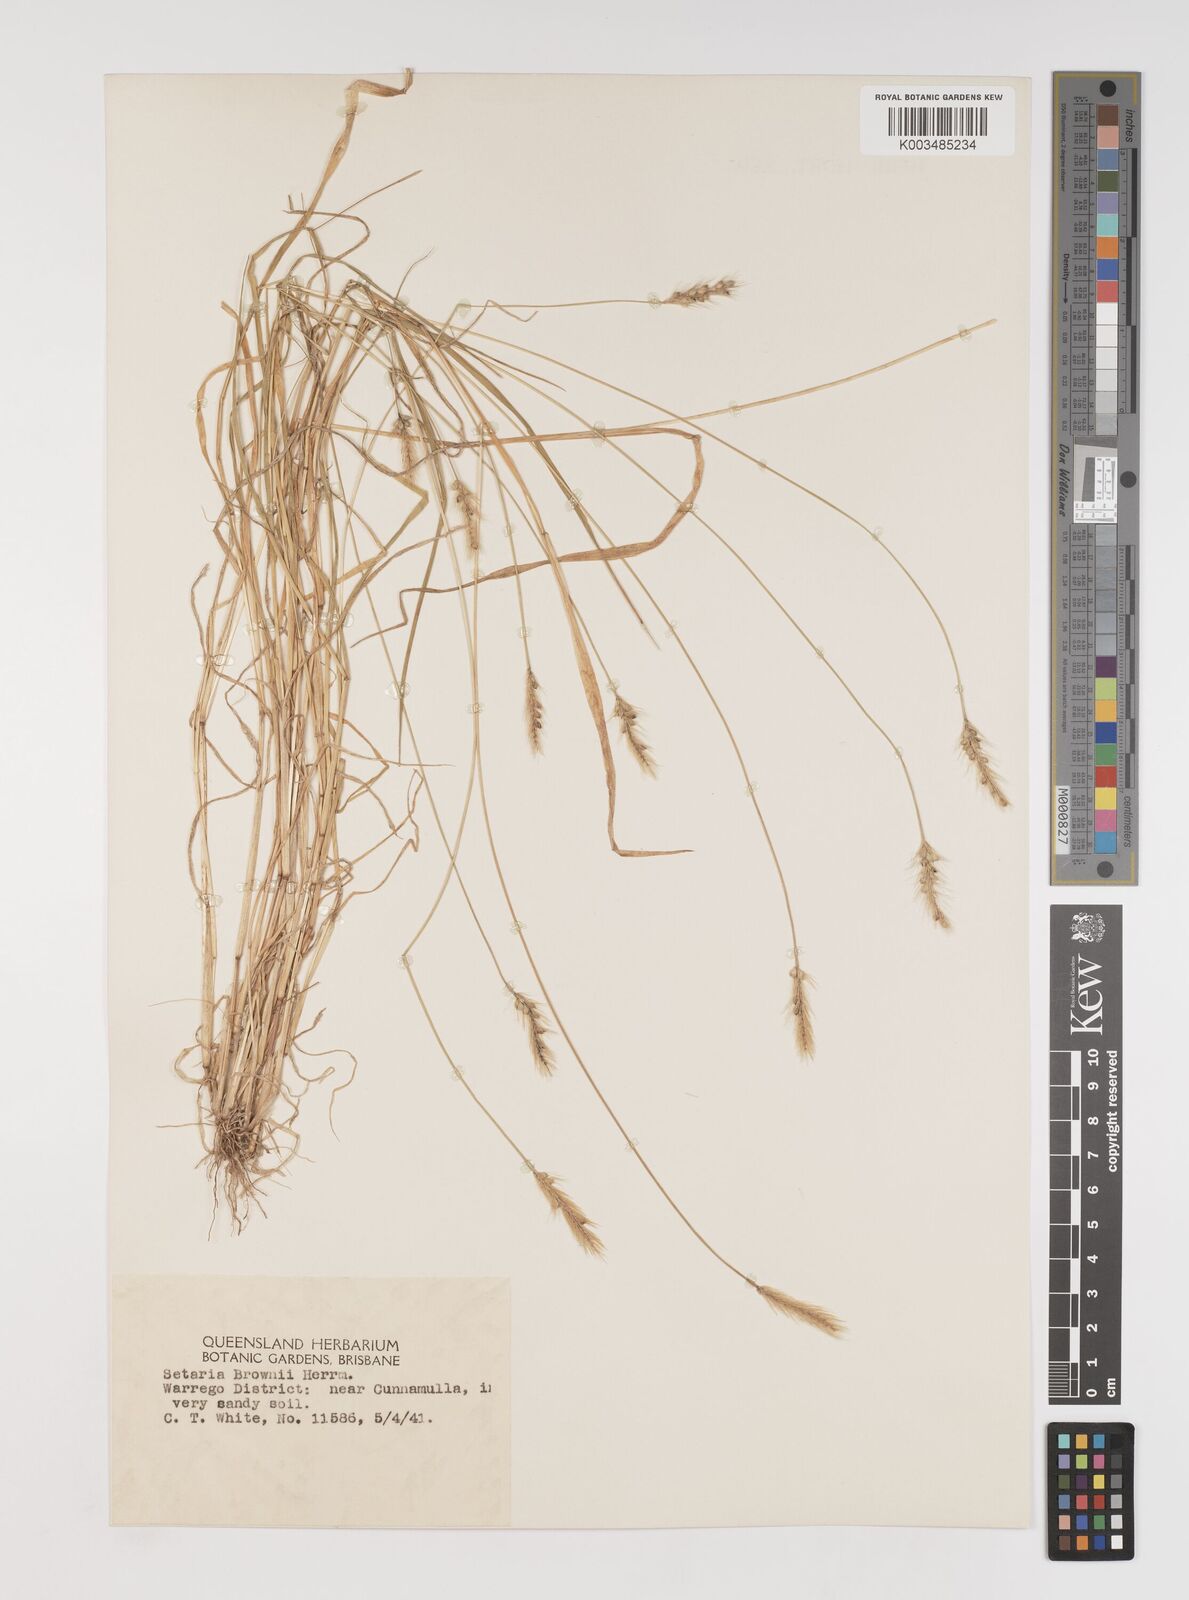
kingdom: Plantae
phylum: Tracheophyta
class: Liliopsida
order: Poales
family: Poaceae
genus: Setaria
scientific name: Setaria surgens
